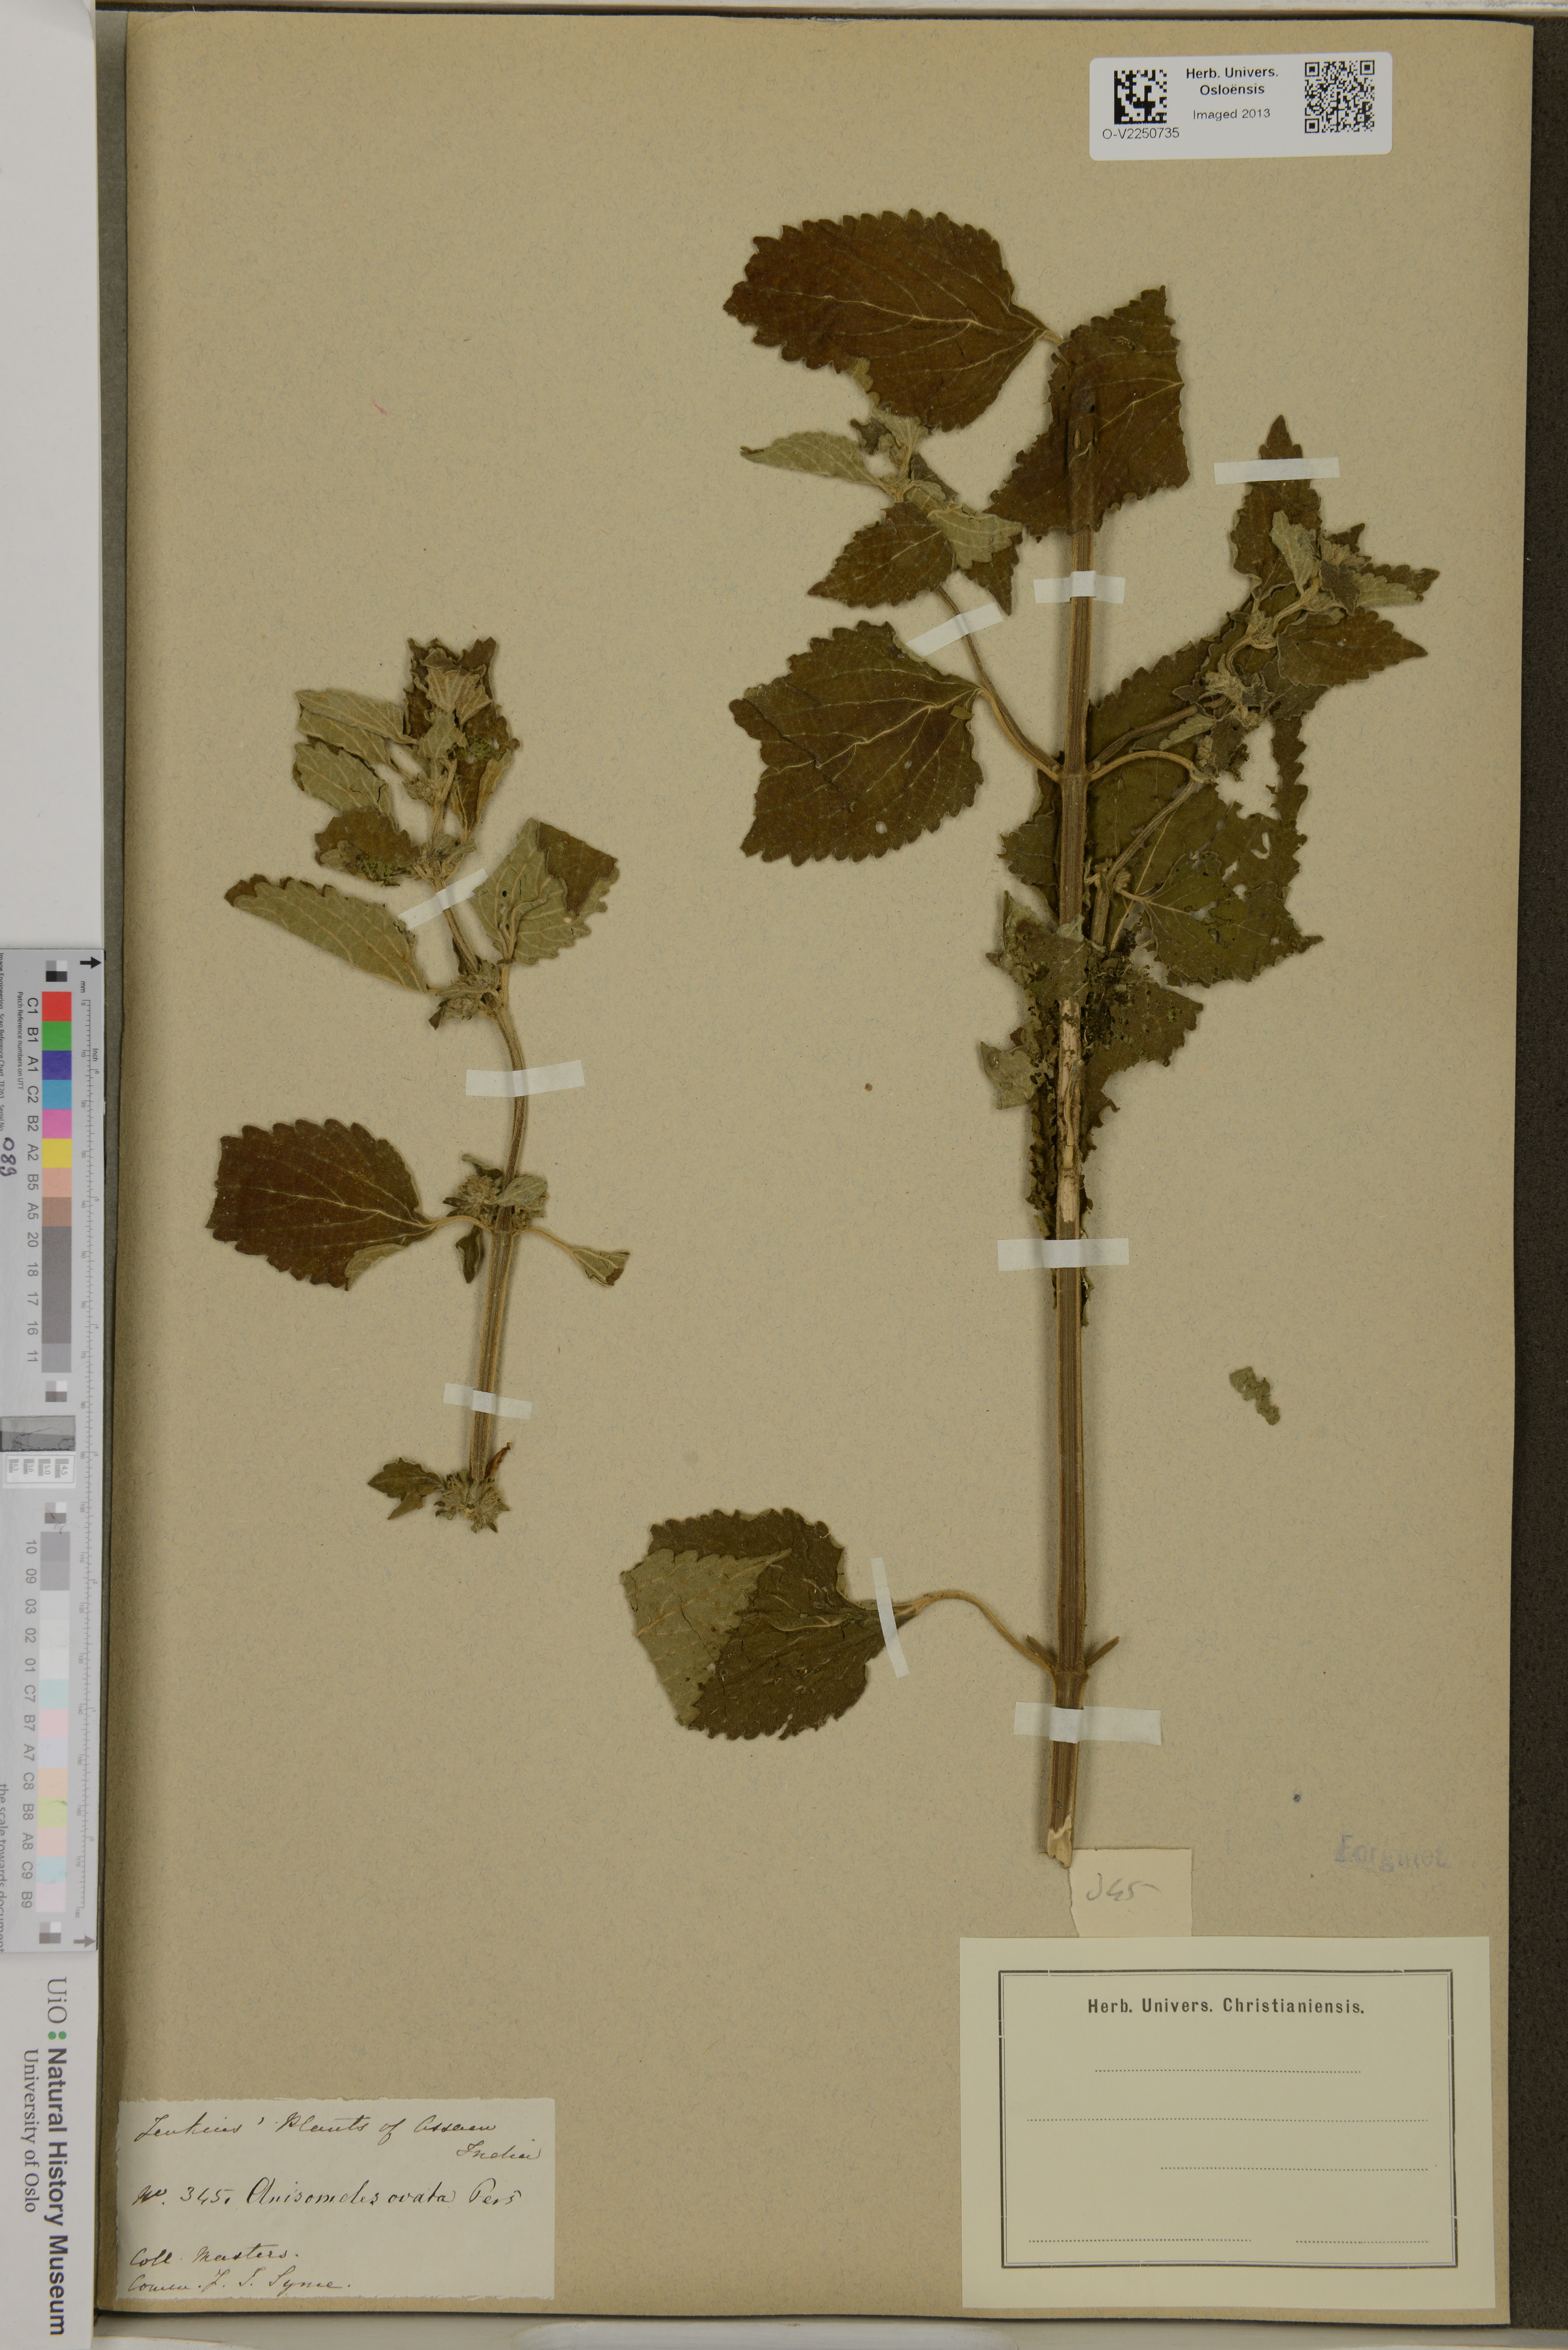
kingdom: Plantae
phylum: Tracheophyta
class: Magnoliopsida
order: Lamiales
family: Lamiaceae
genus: Anisomeles
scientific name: Anisomeles indica
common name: Catmint
